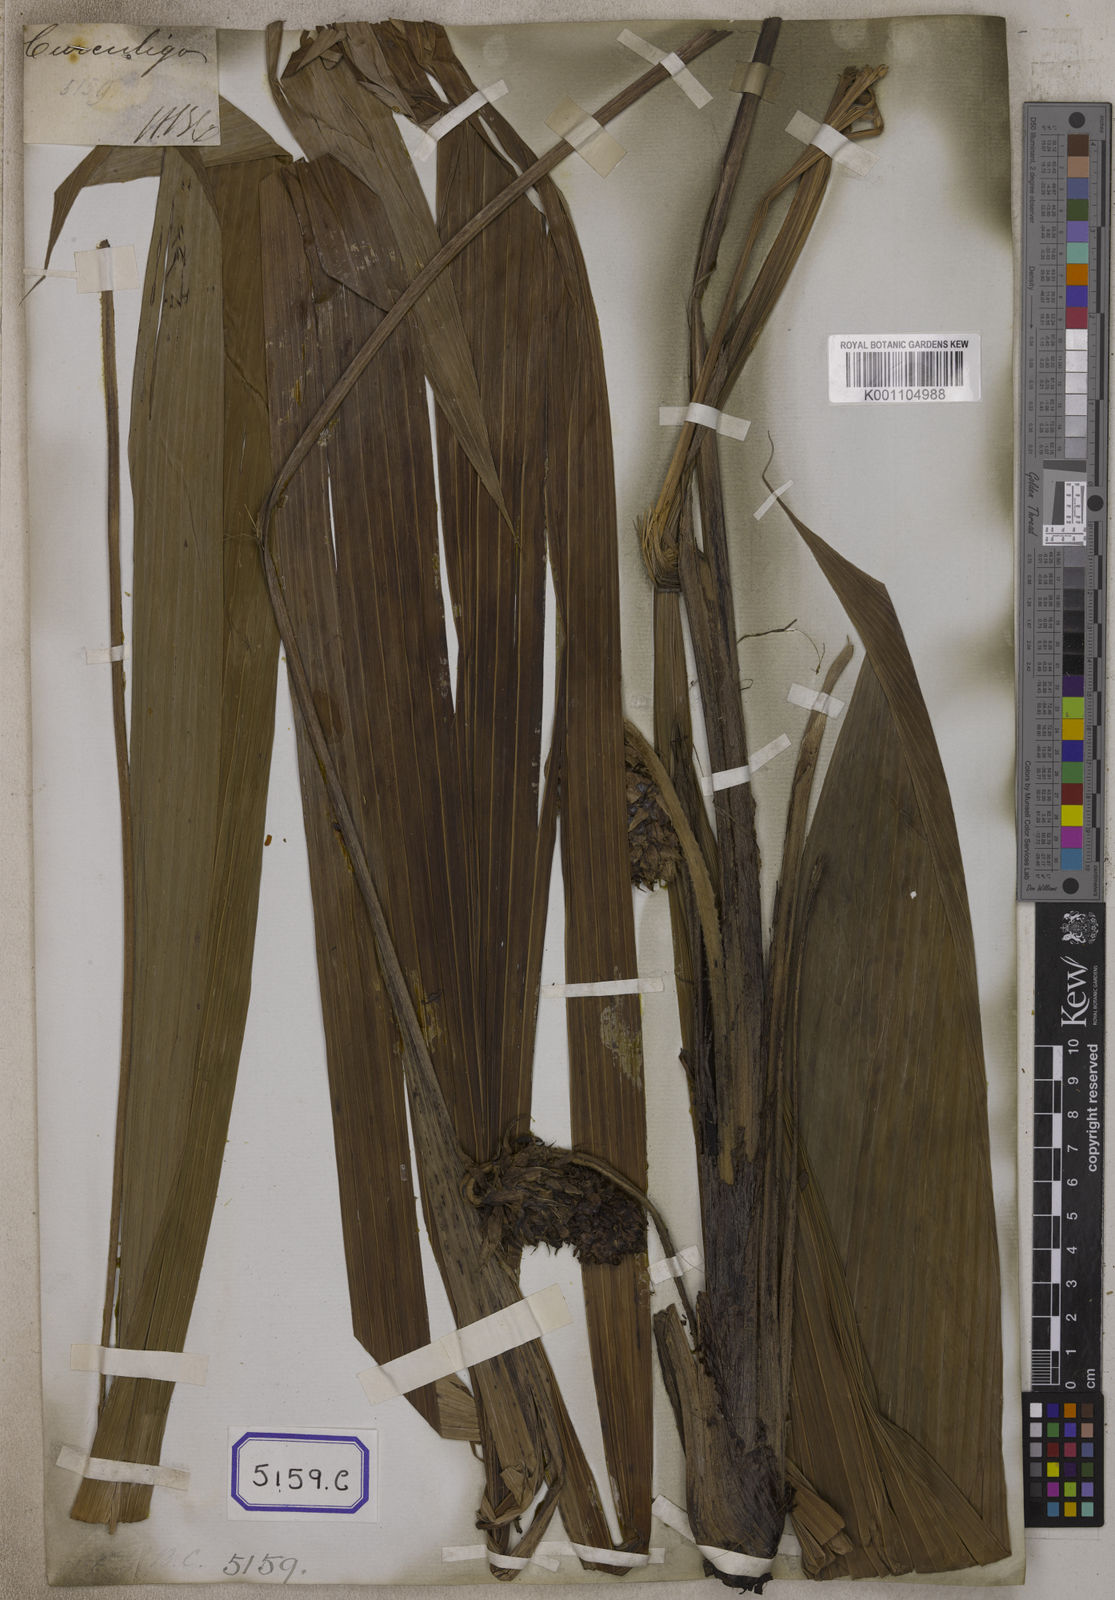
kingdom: Plantae
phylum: Tracheophyta
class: Liliopsida
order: Asparagales
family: Hypoxidaceae
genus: Curculigo
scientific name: Curculigo capitulata
